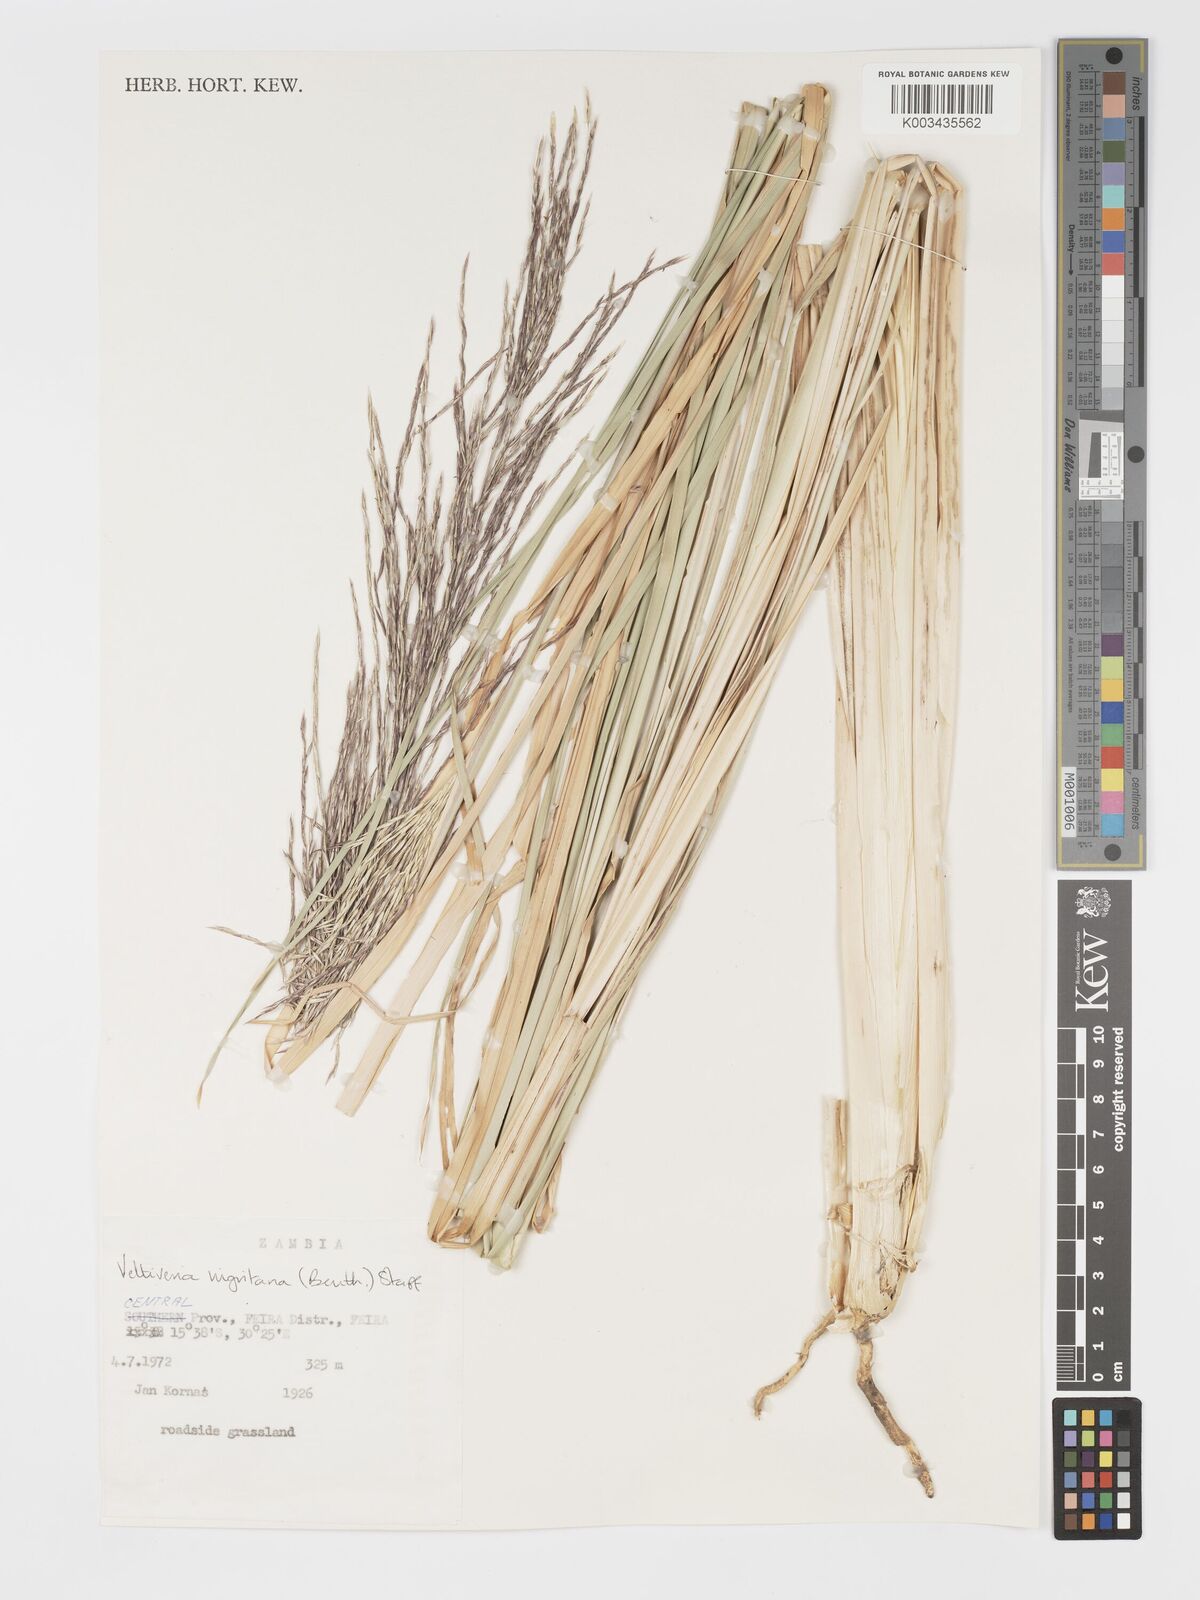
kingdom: Plantae
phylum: Tracheophyta
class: Liliopsida
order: Poales
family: Poaceae
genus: Chrysopogon
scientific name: Chrysopogon nigritanus
